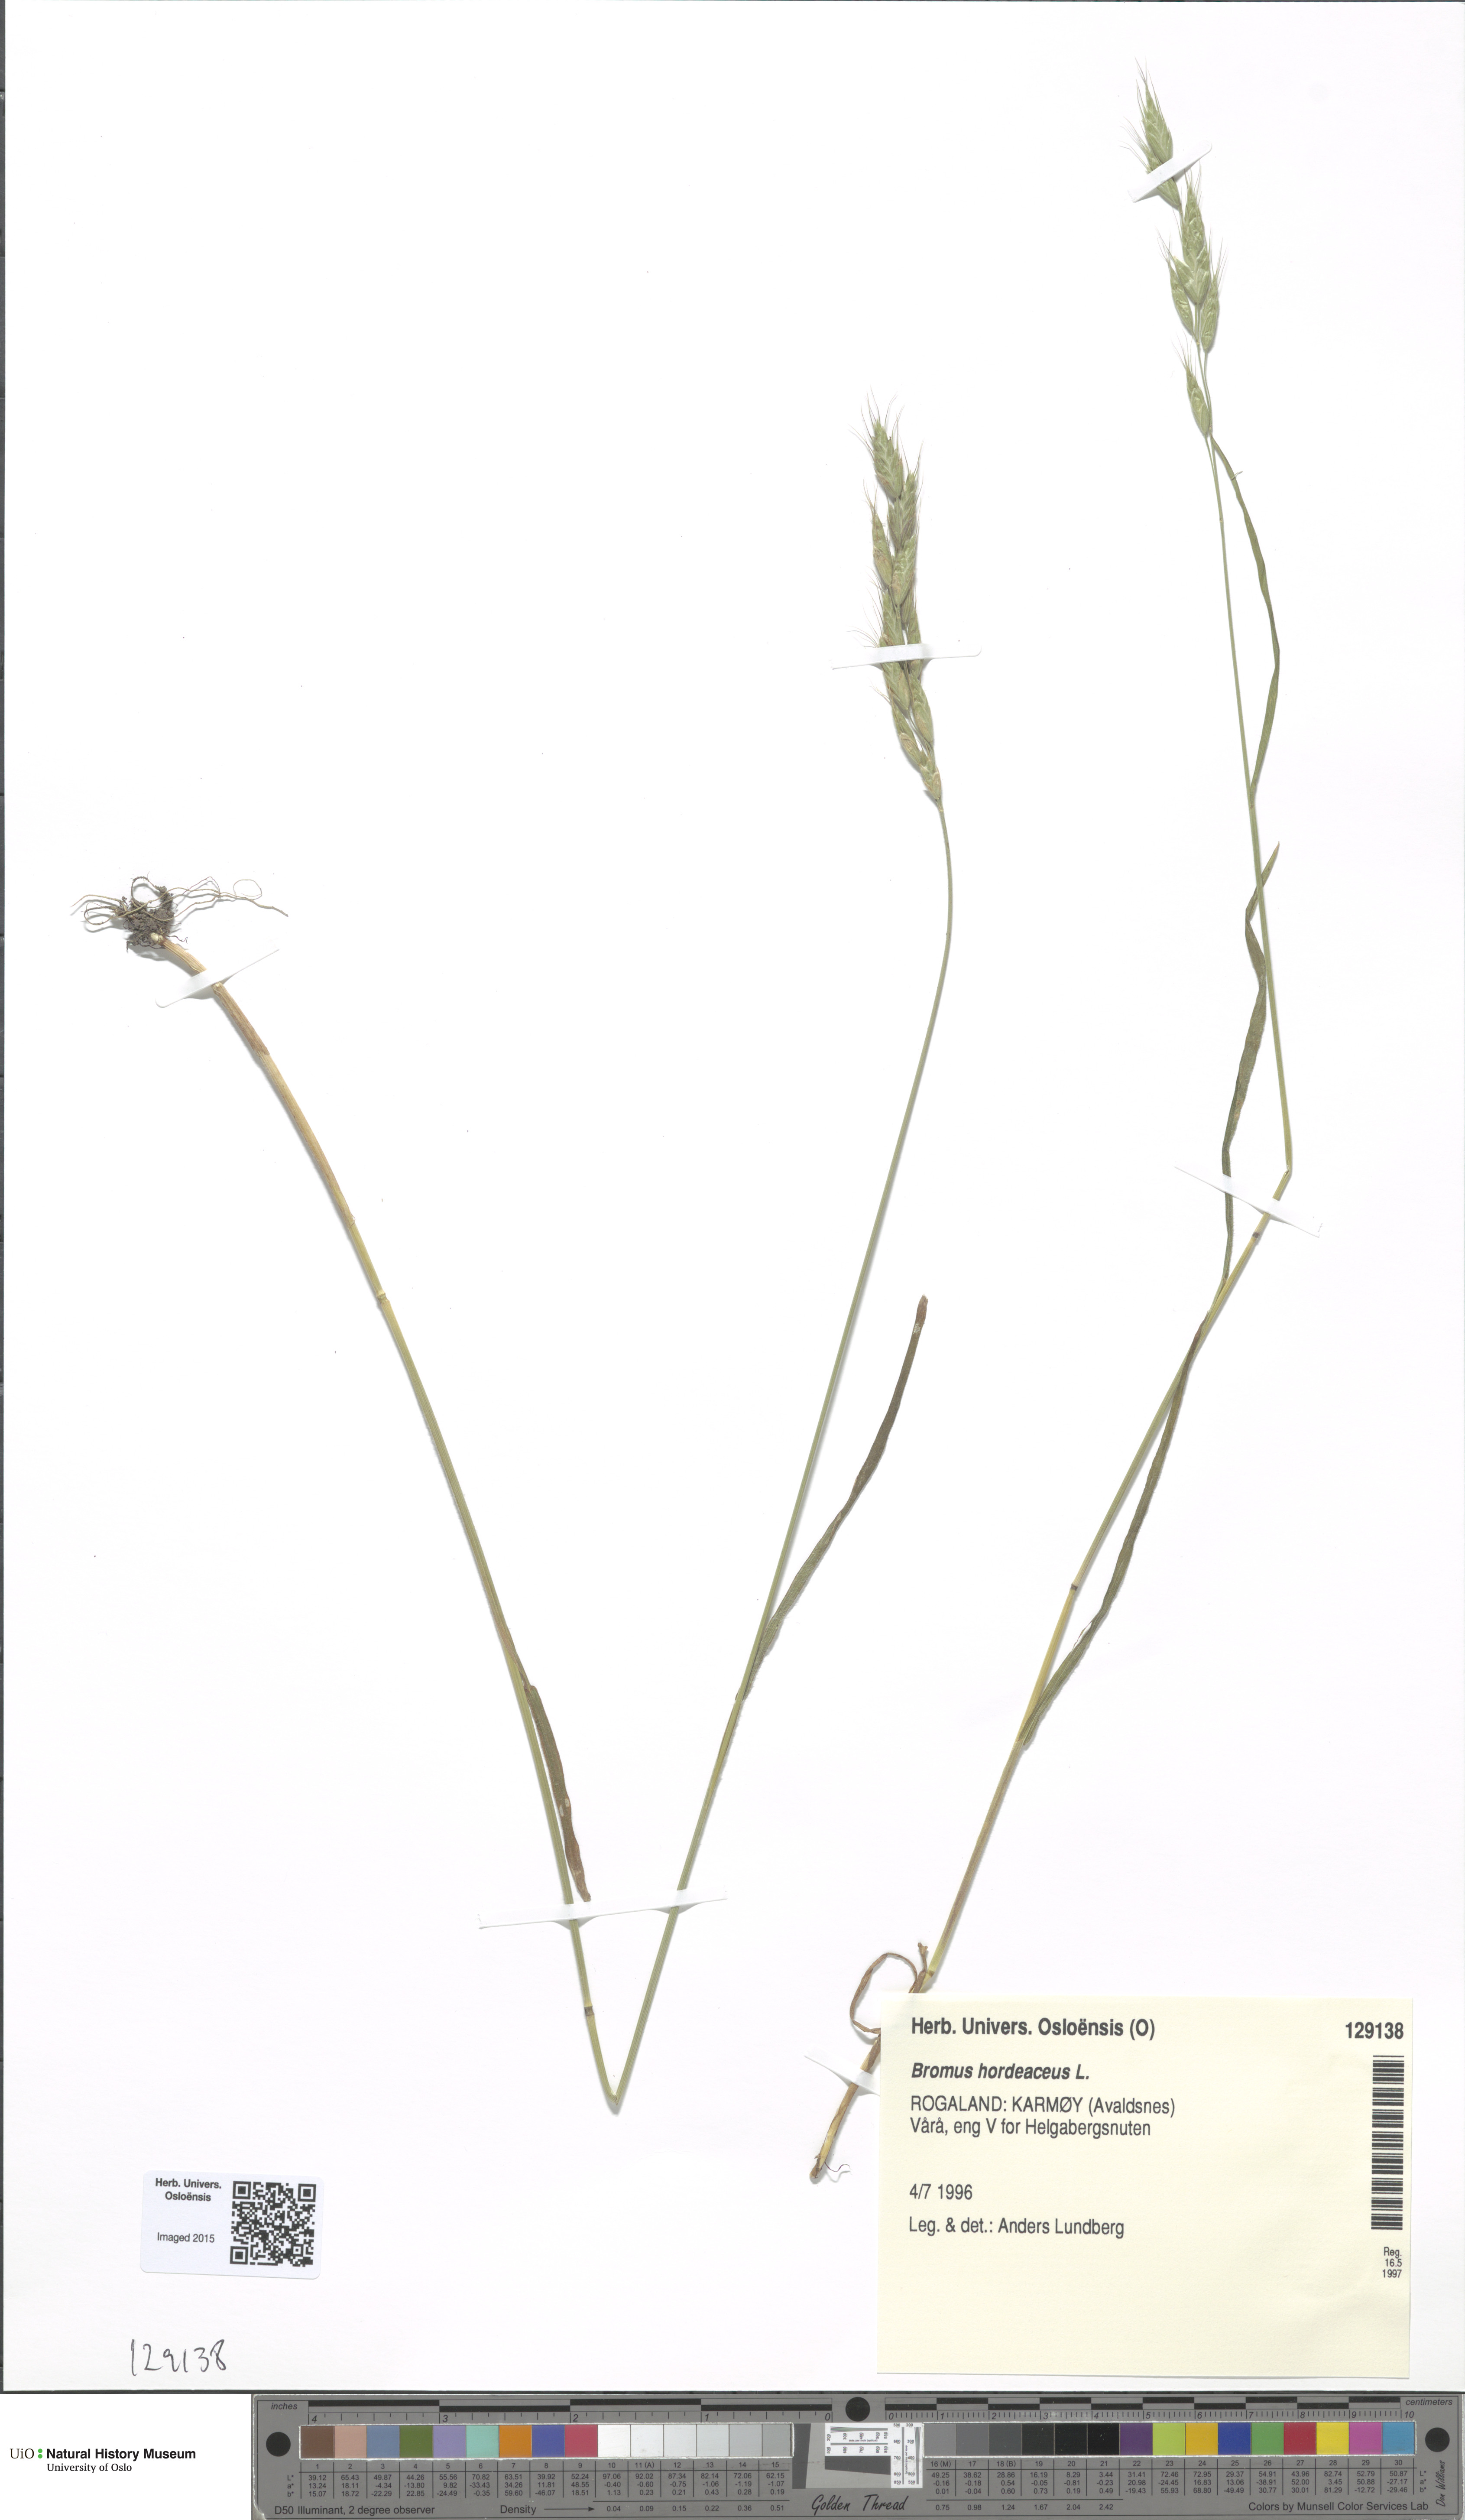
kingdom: Plantae
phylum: Tracheophyta
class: Liliopsida
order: Poales
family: Poaceae
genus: Bromus
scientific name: Bromus hordeaceus
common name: Soft brome
